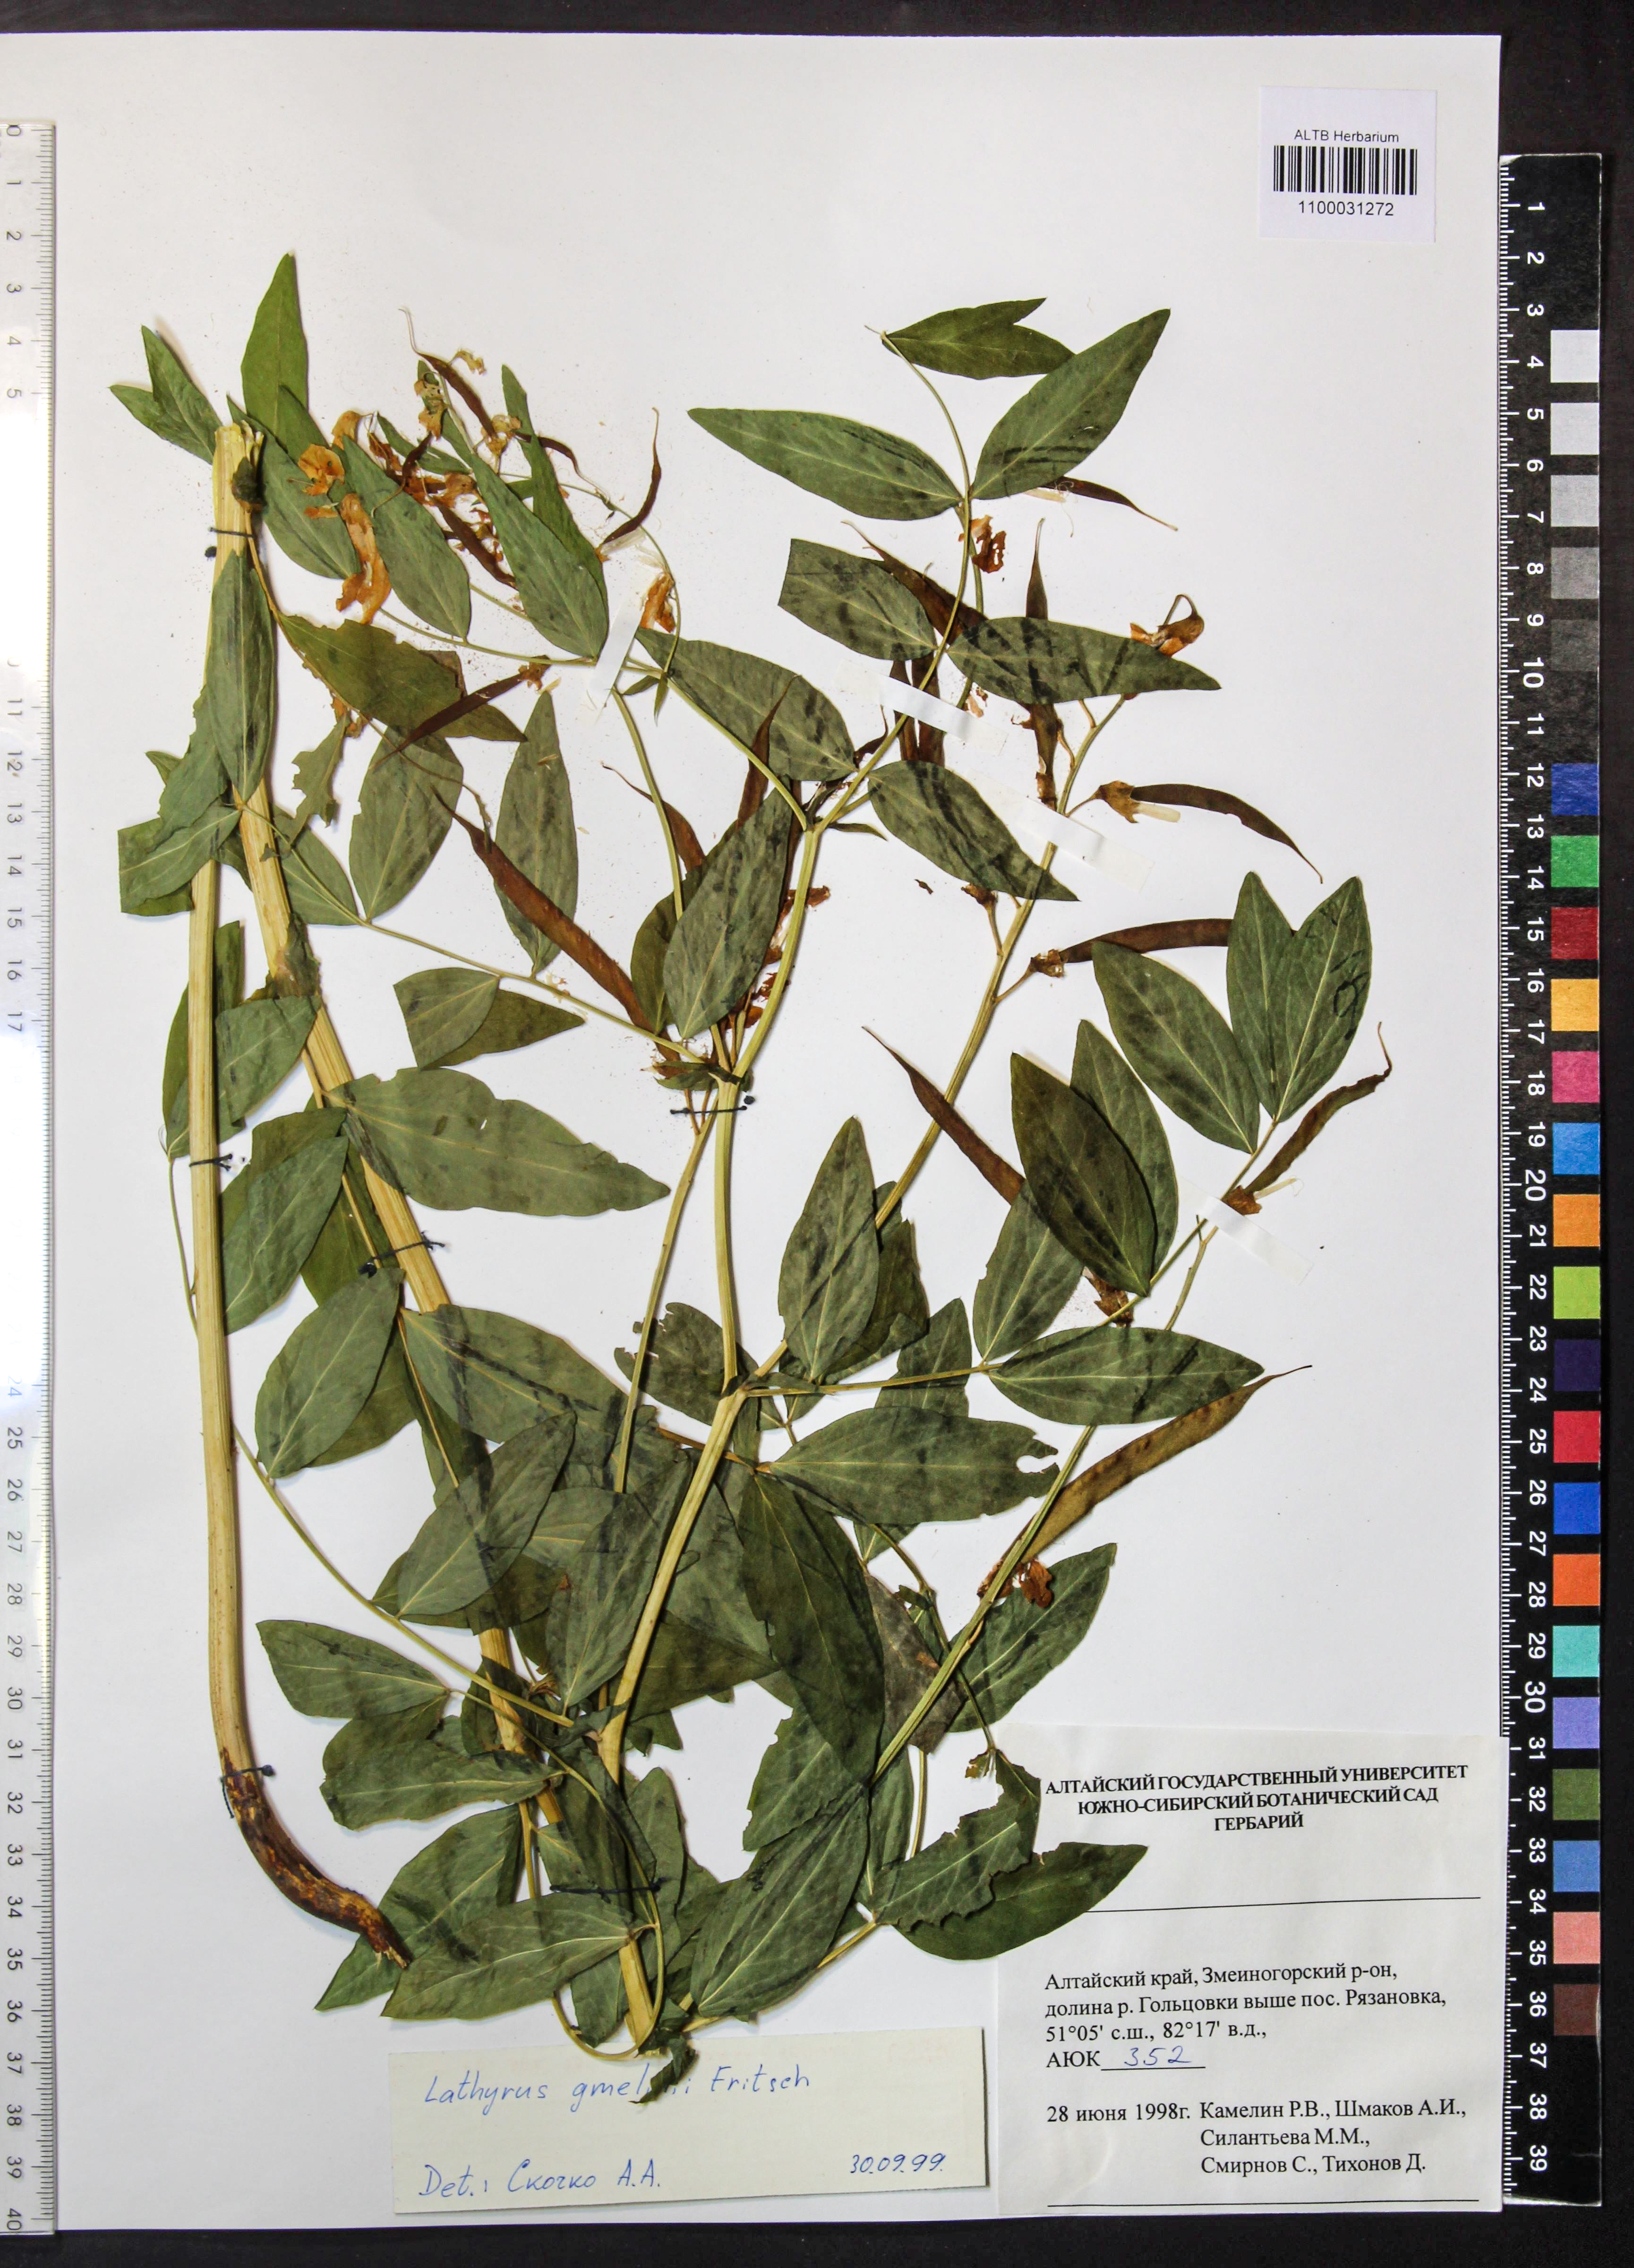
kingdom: Plantae
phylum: Tracheophyta
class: Magnoliopsida
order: Fabales
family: Fabaceae
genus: Lathyrus
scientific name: Lathyrus gmelinii
